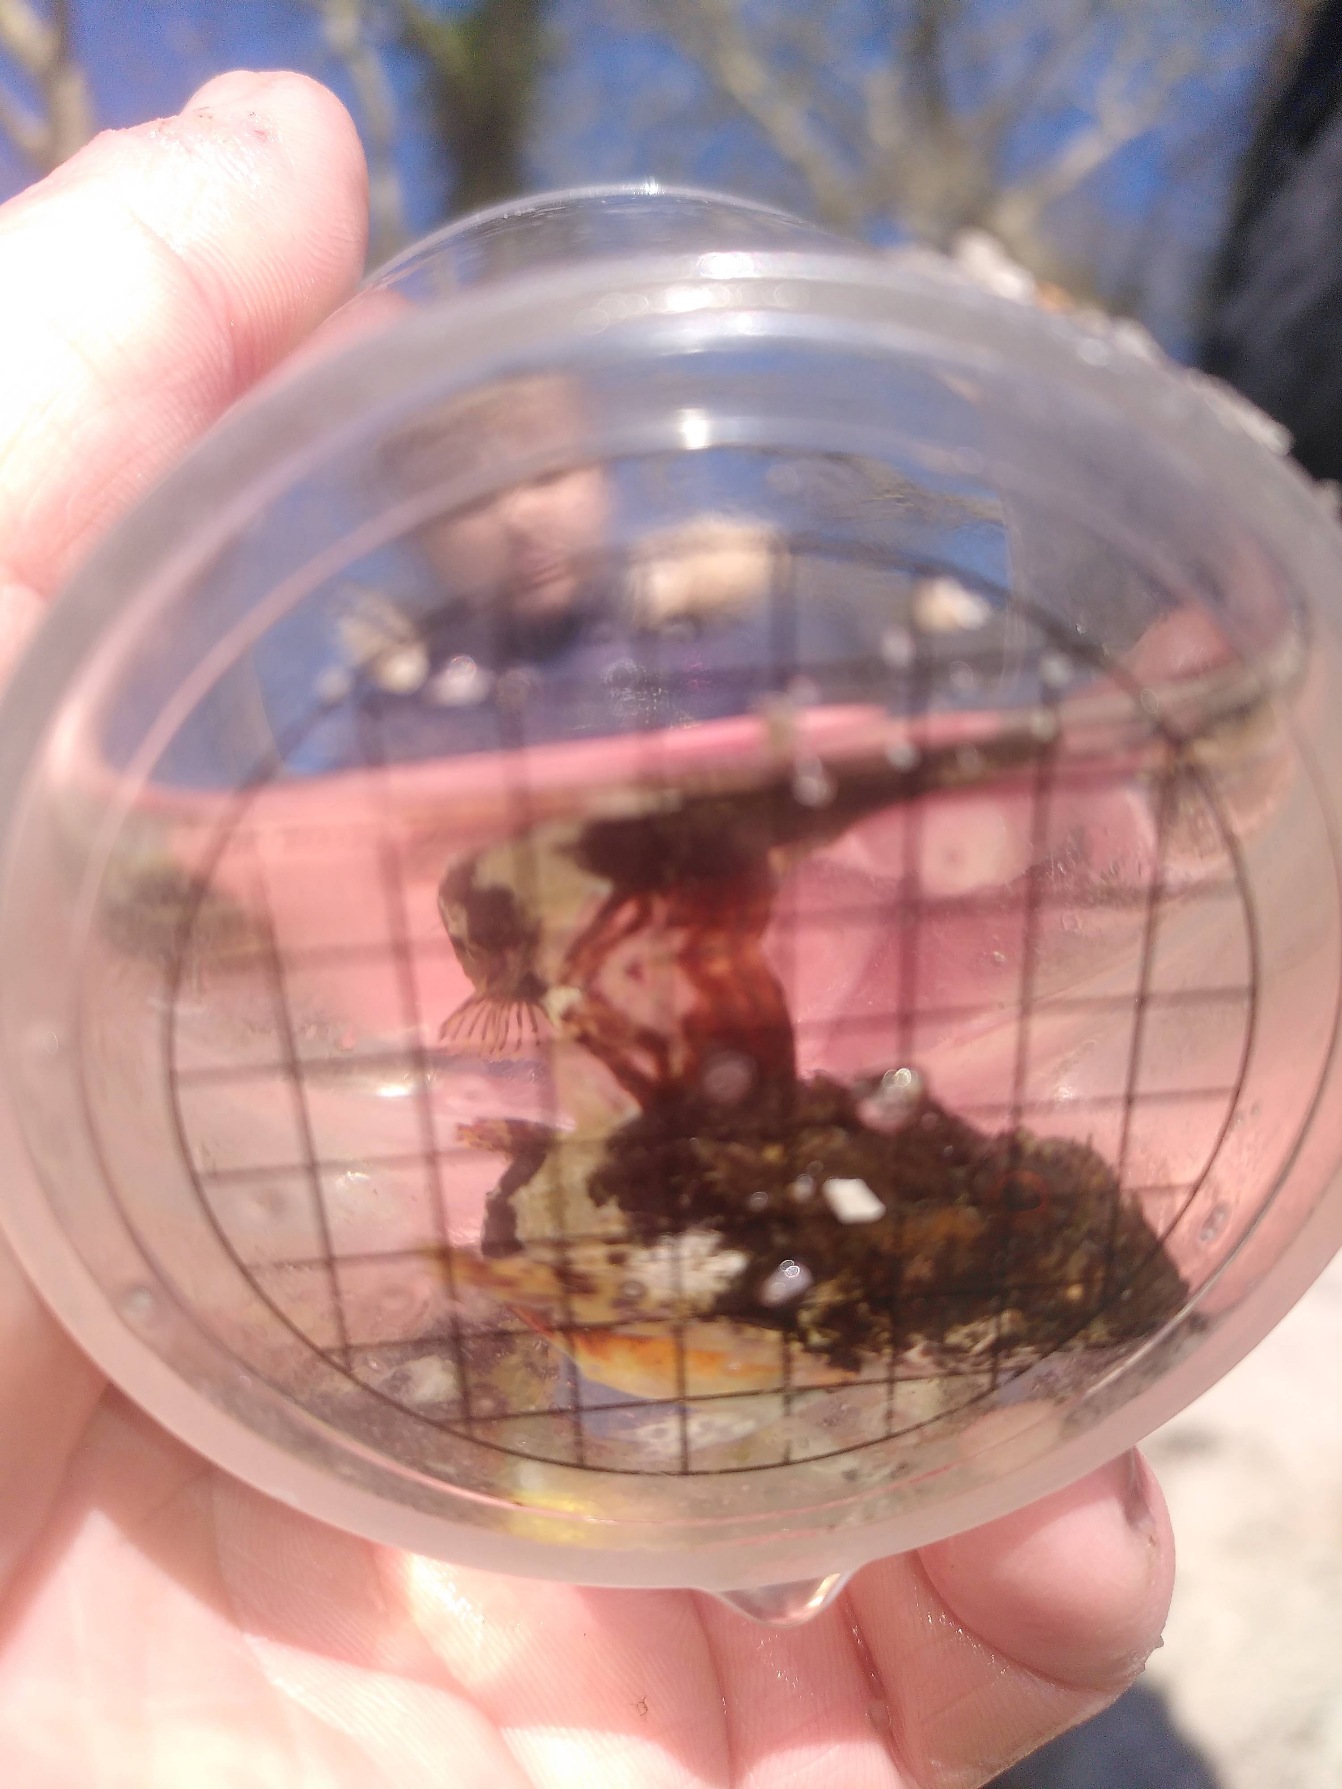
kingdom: Animalia
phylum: Chordata
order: Scorpaeniformes
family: Cottidae
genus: Myoxocephalus
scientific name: Myoxocephalus scorpius
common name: Almindelig ulk
